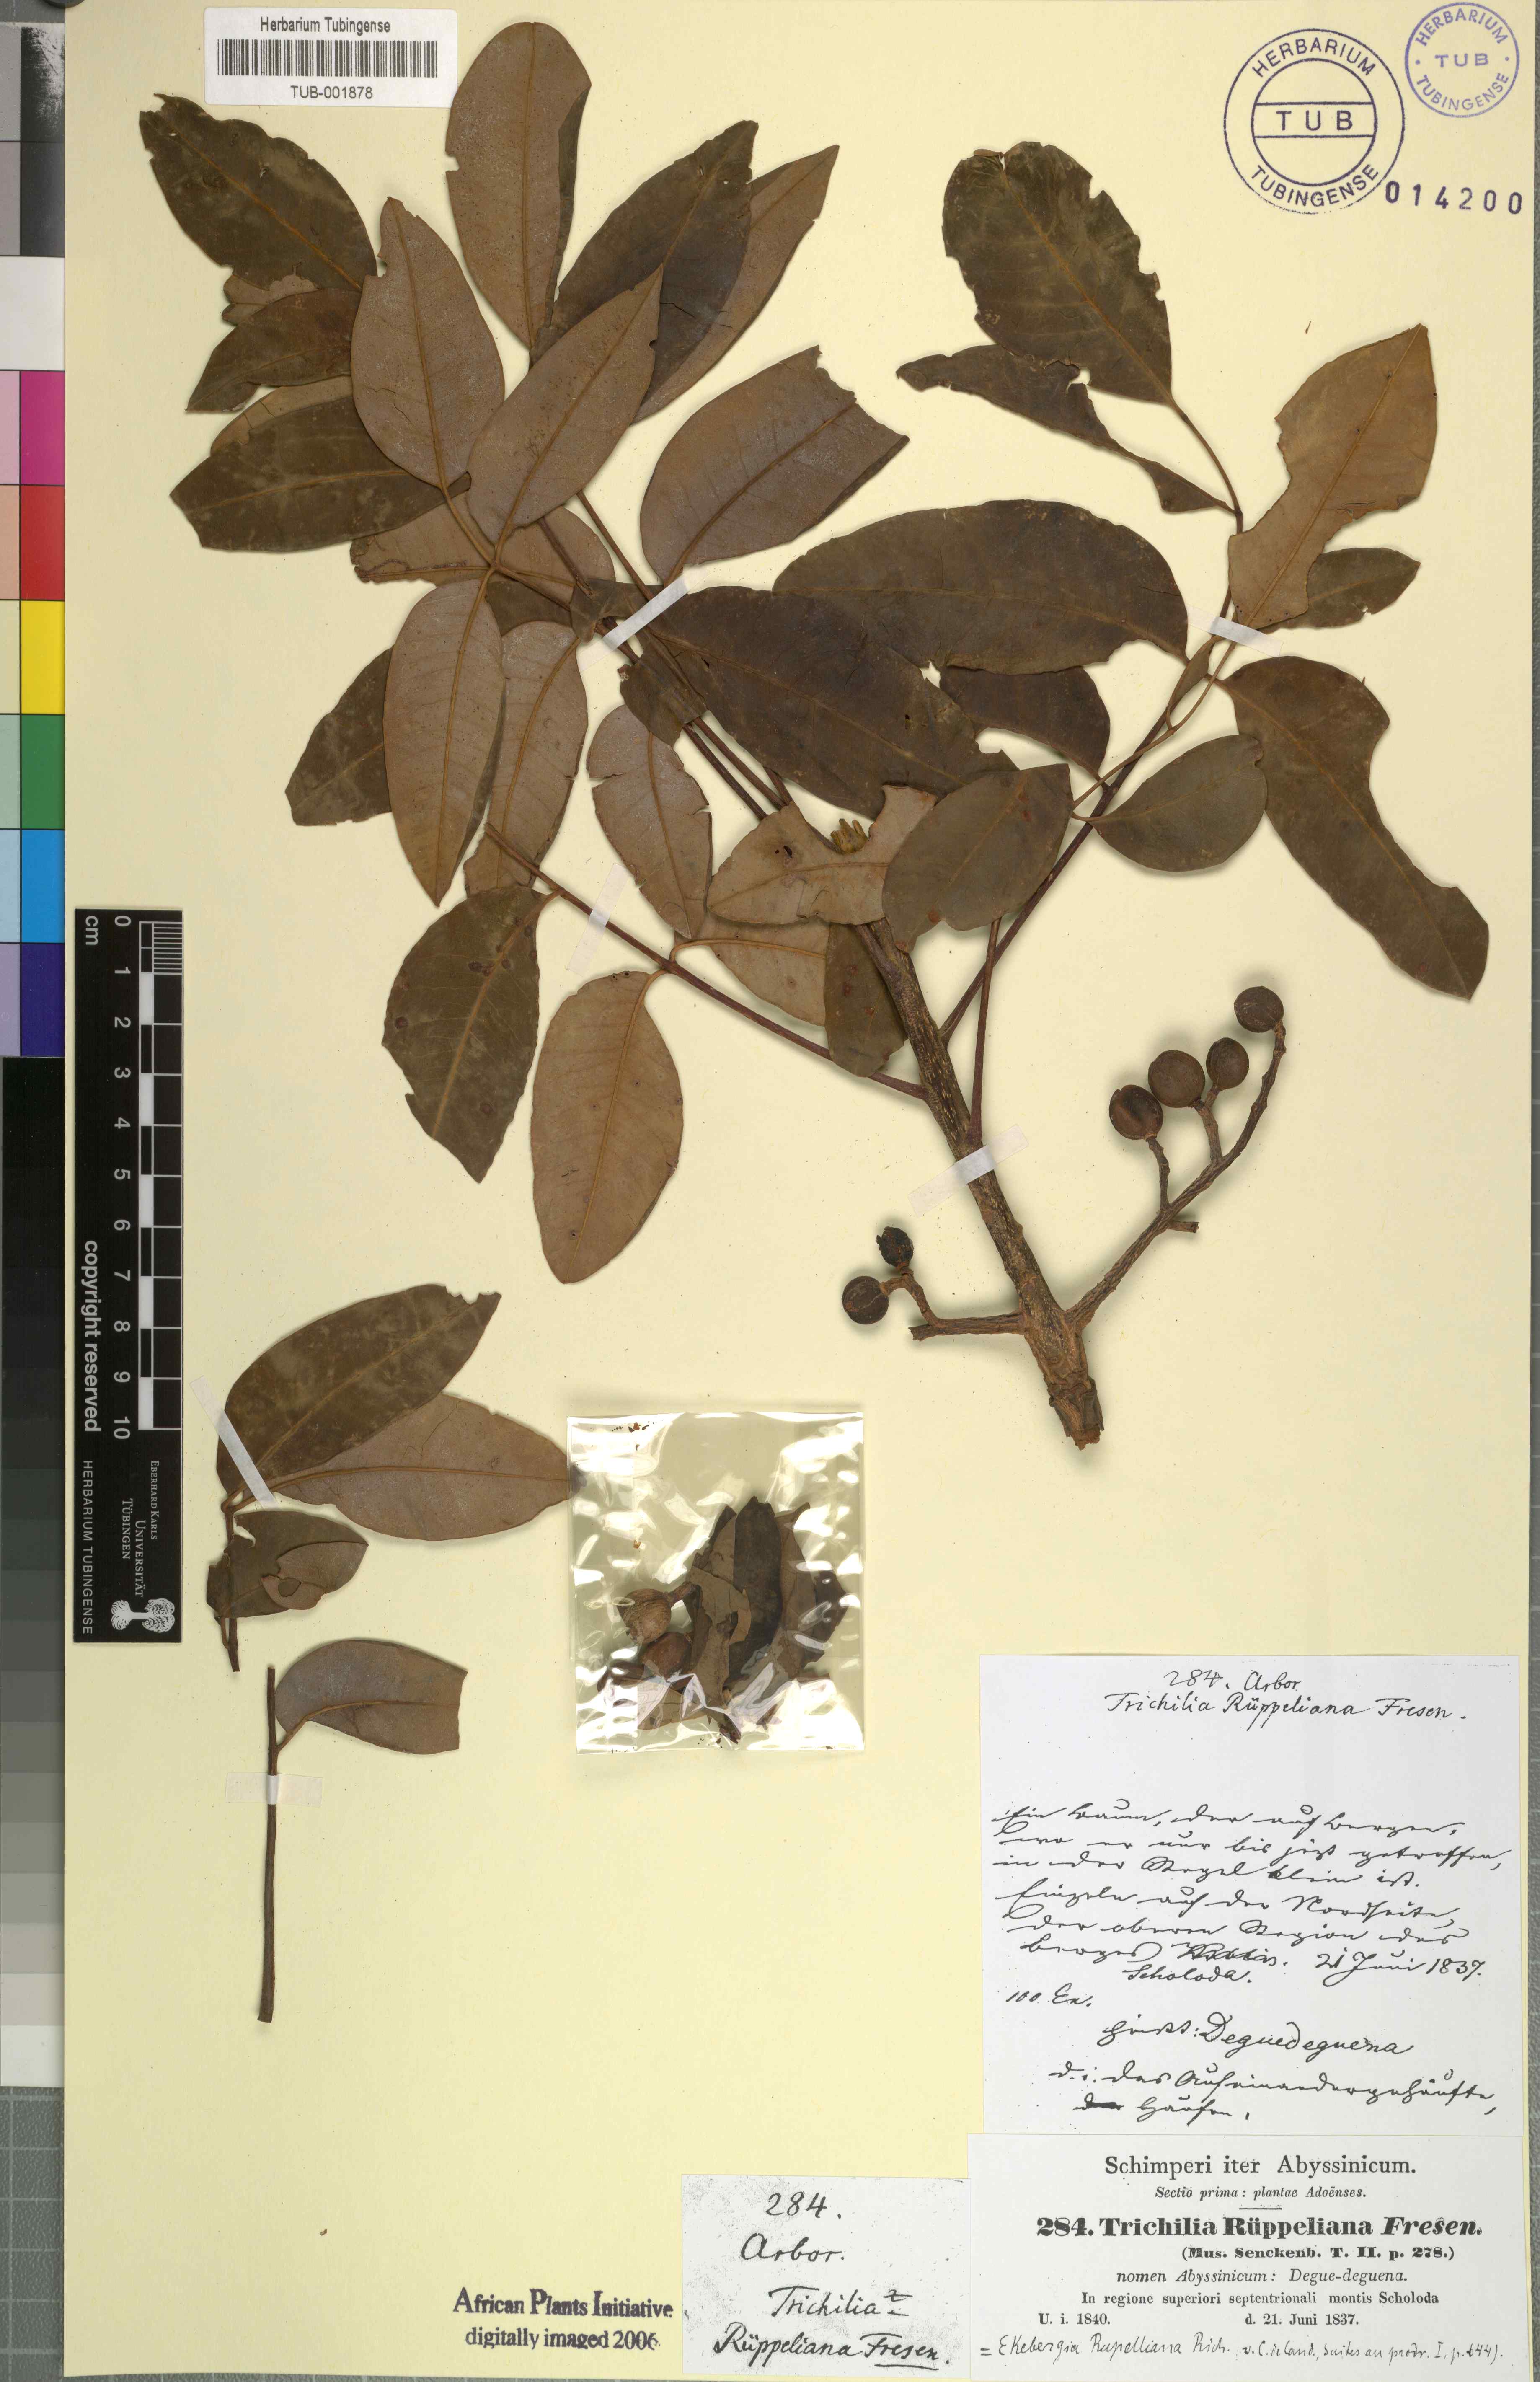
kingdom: Plantae
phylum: Tracheophyta
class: Magnoliopsida
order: Sapindales
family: Meliaceae
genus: Ekebergia
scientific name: Ekebergia capensis
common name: Cape-ash
